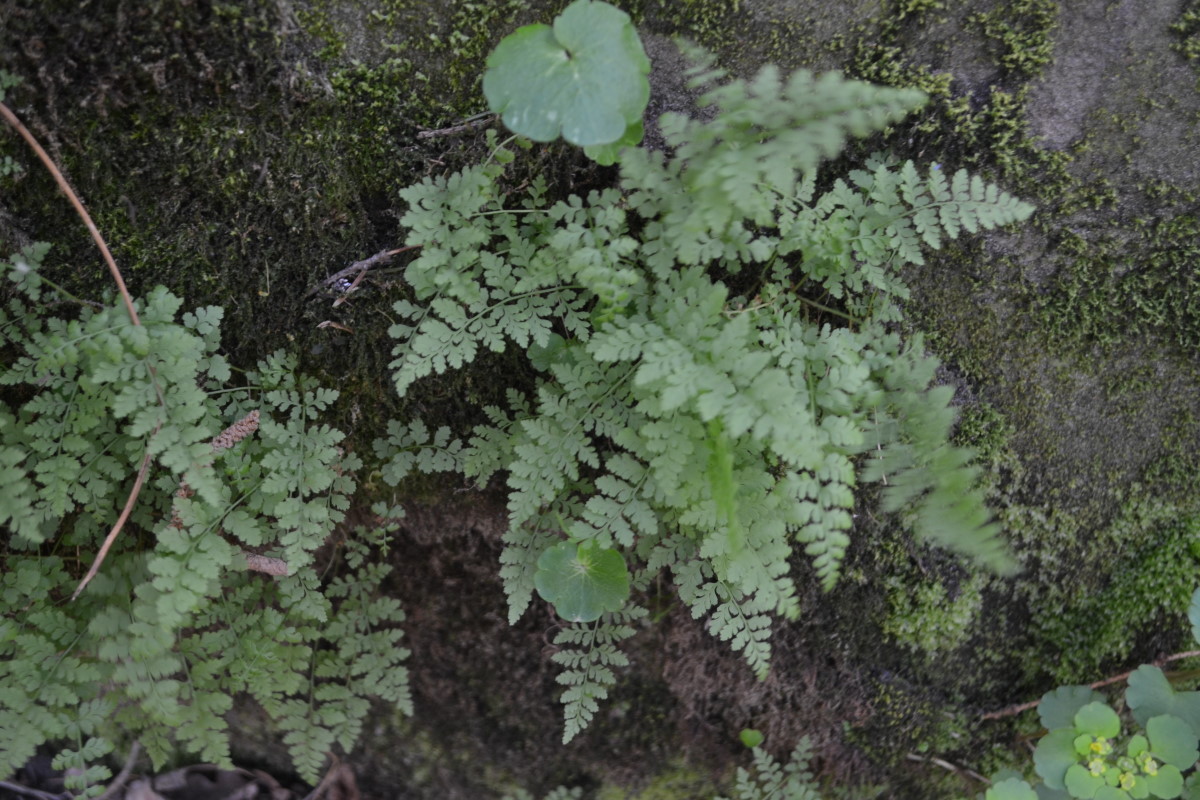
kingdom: Plantae
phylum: Tracheophyta
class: Polypodiopsida
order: Polypodiales
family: Cystopteridaceae
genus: Cystopteris
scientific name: Cystopteris fragilis
